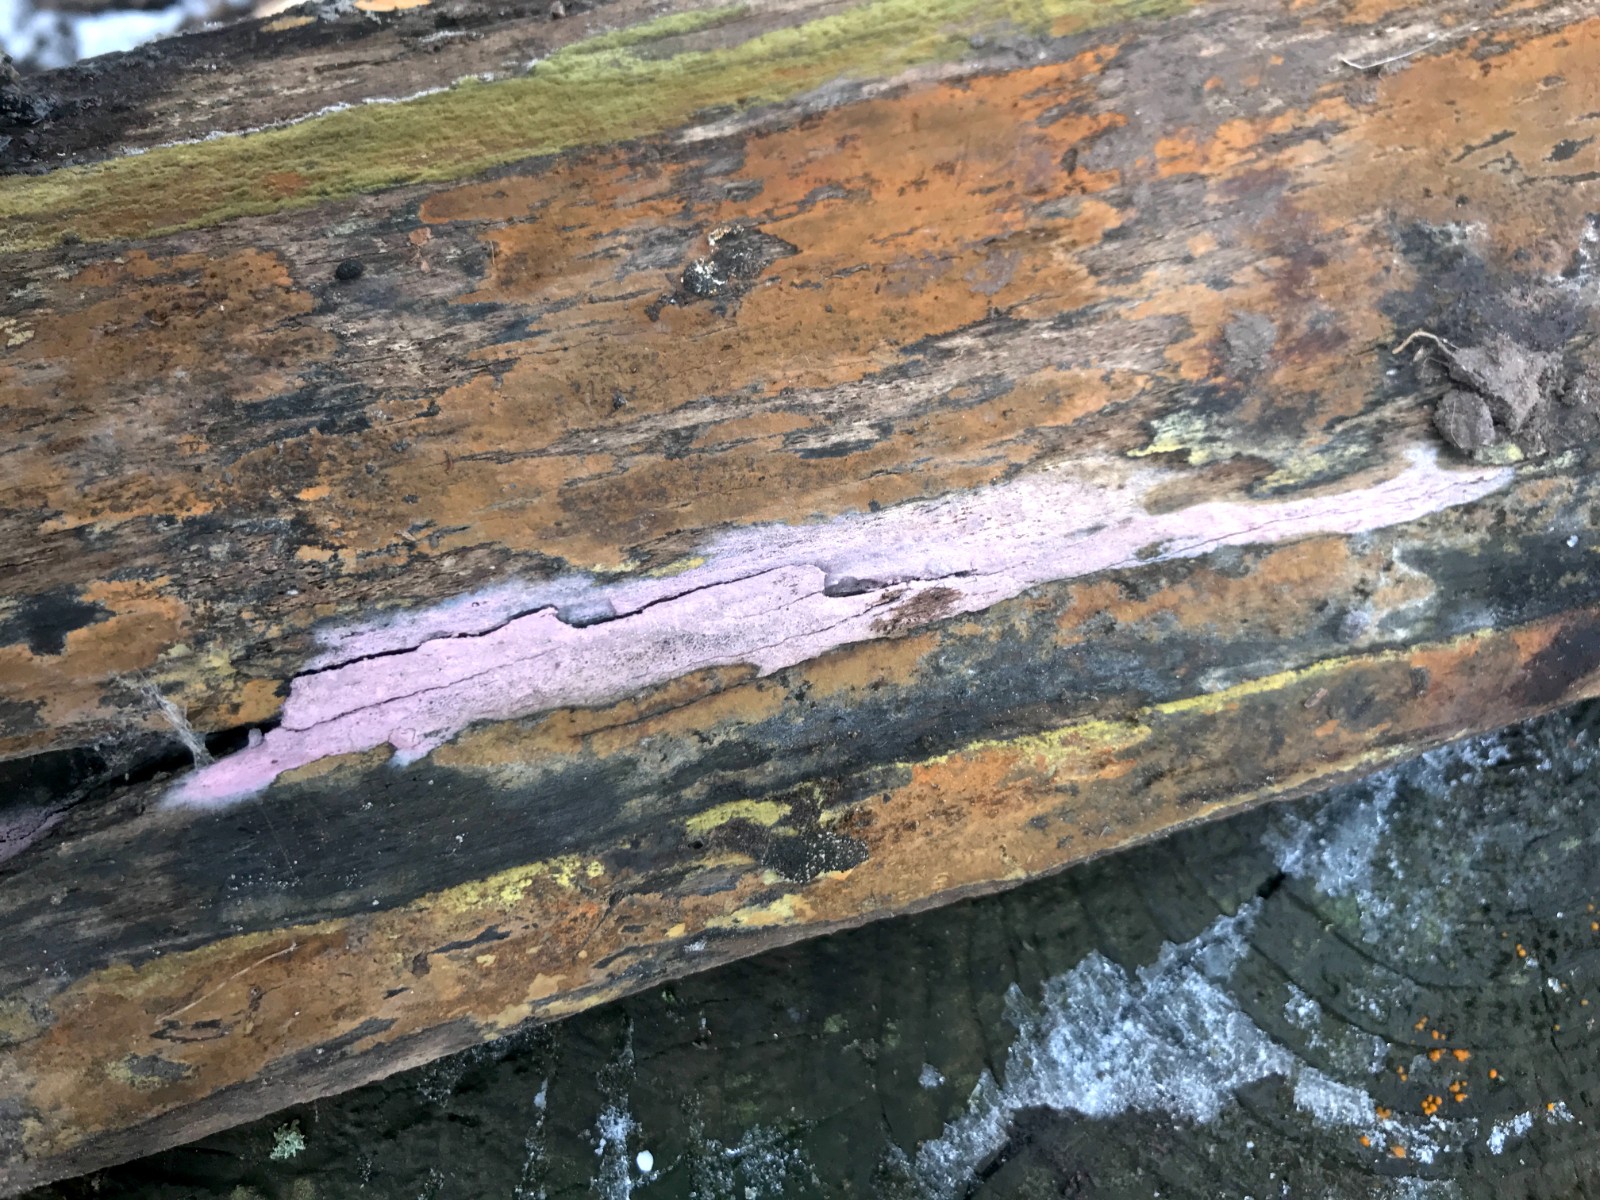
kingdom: Fungi
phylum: Basidiomycota
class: Agaricomycetes
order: Cantharellales
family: Tulasnellaceae
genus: Tulasnella
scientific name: Tulasnella violea
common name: violet ballonhinde
